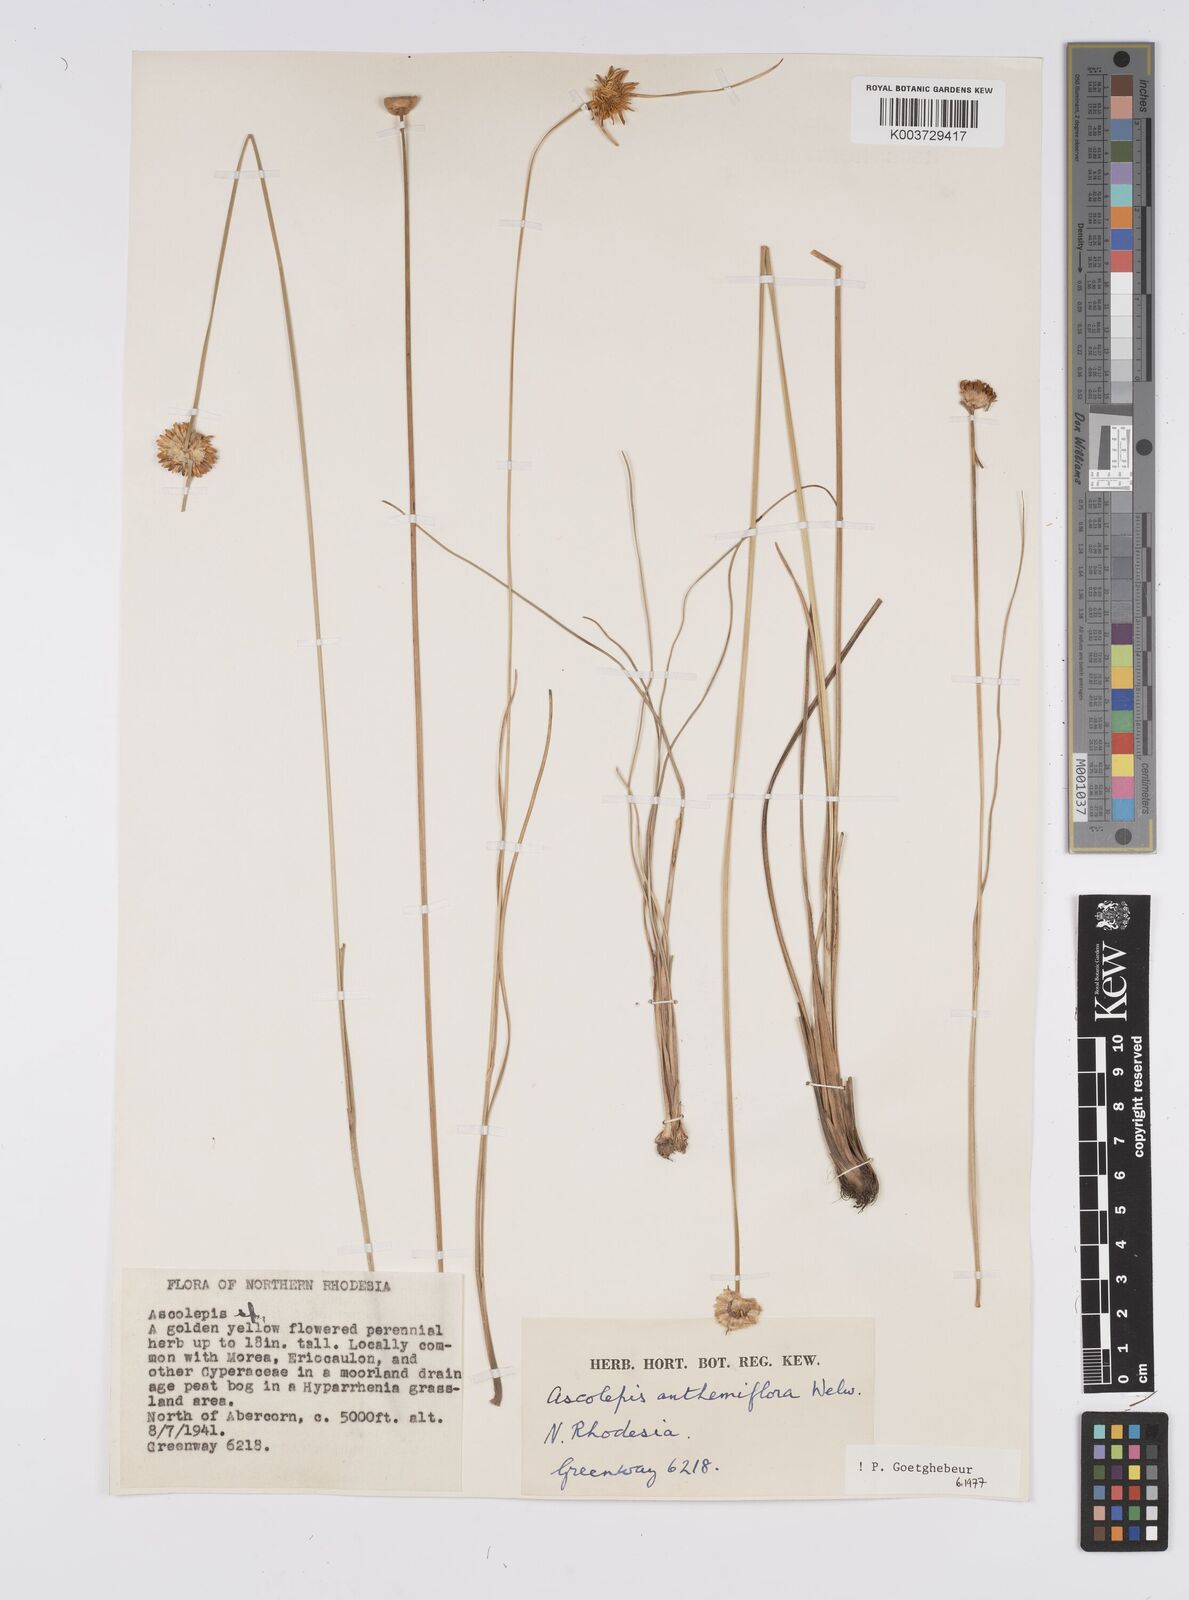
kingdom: Plantae
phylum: Tracheophyta
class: Liliopsida
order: Poales
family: Cyperaceae
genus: Cyperus
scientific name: Cyperus
